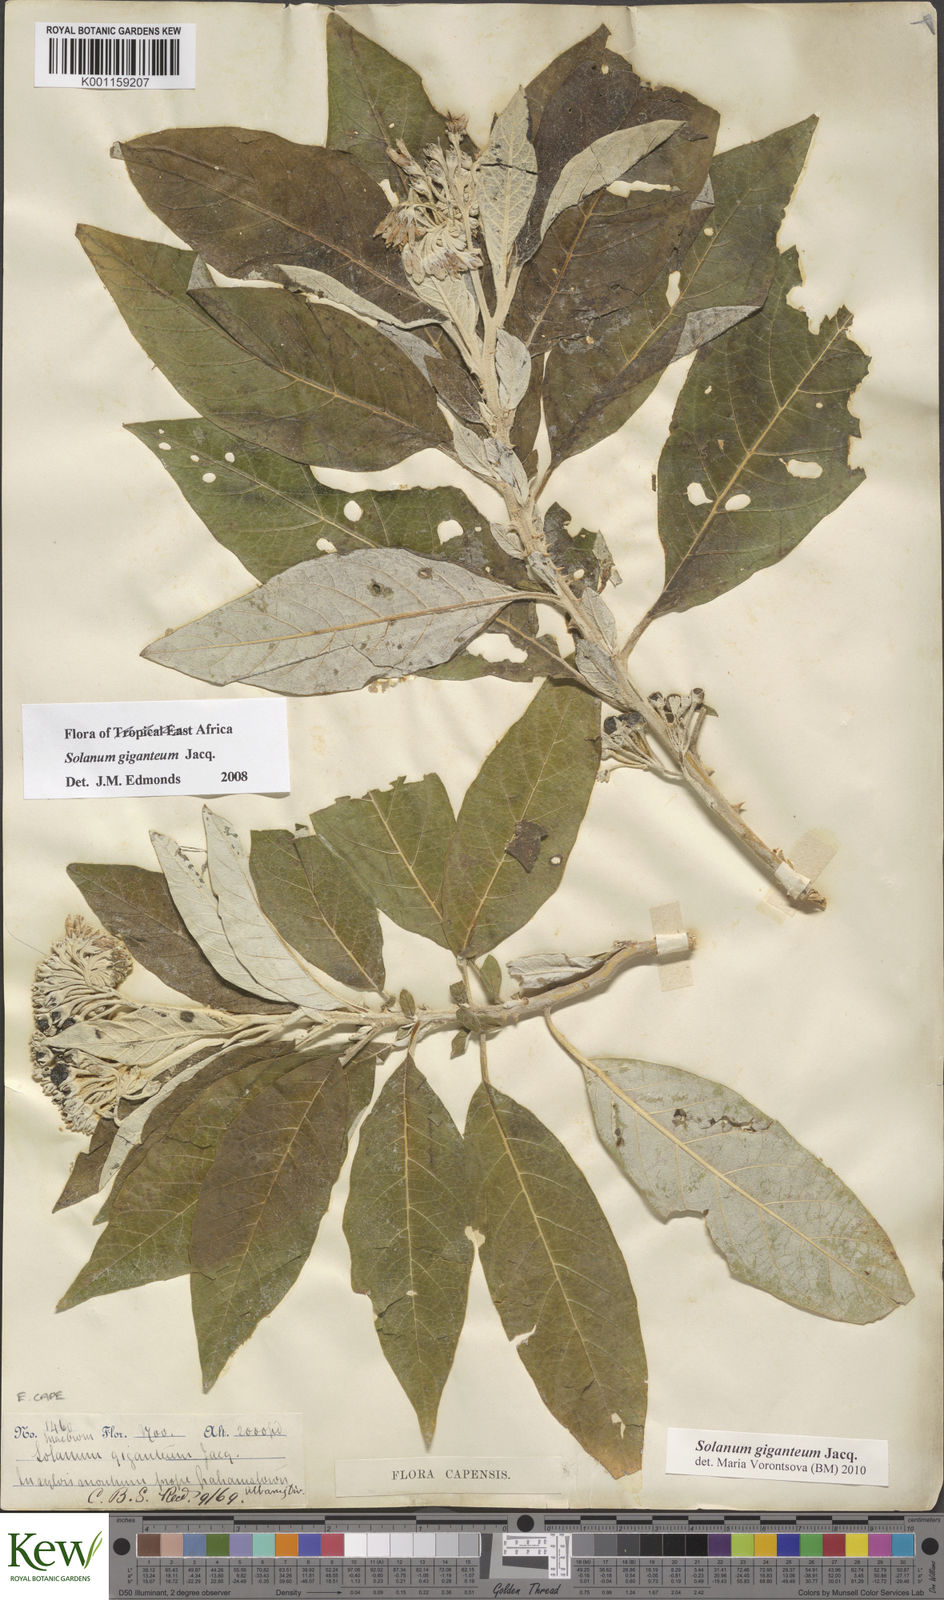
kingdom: Plantae
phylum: Tracheophyta
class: Magnoliopsida
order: Solanales
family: Solanaceae
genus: Solanum
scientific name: Solanum giganteum
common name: Healing-leaf-tree
